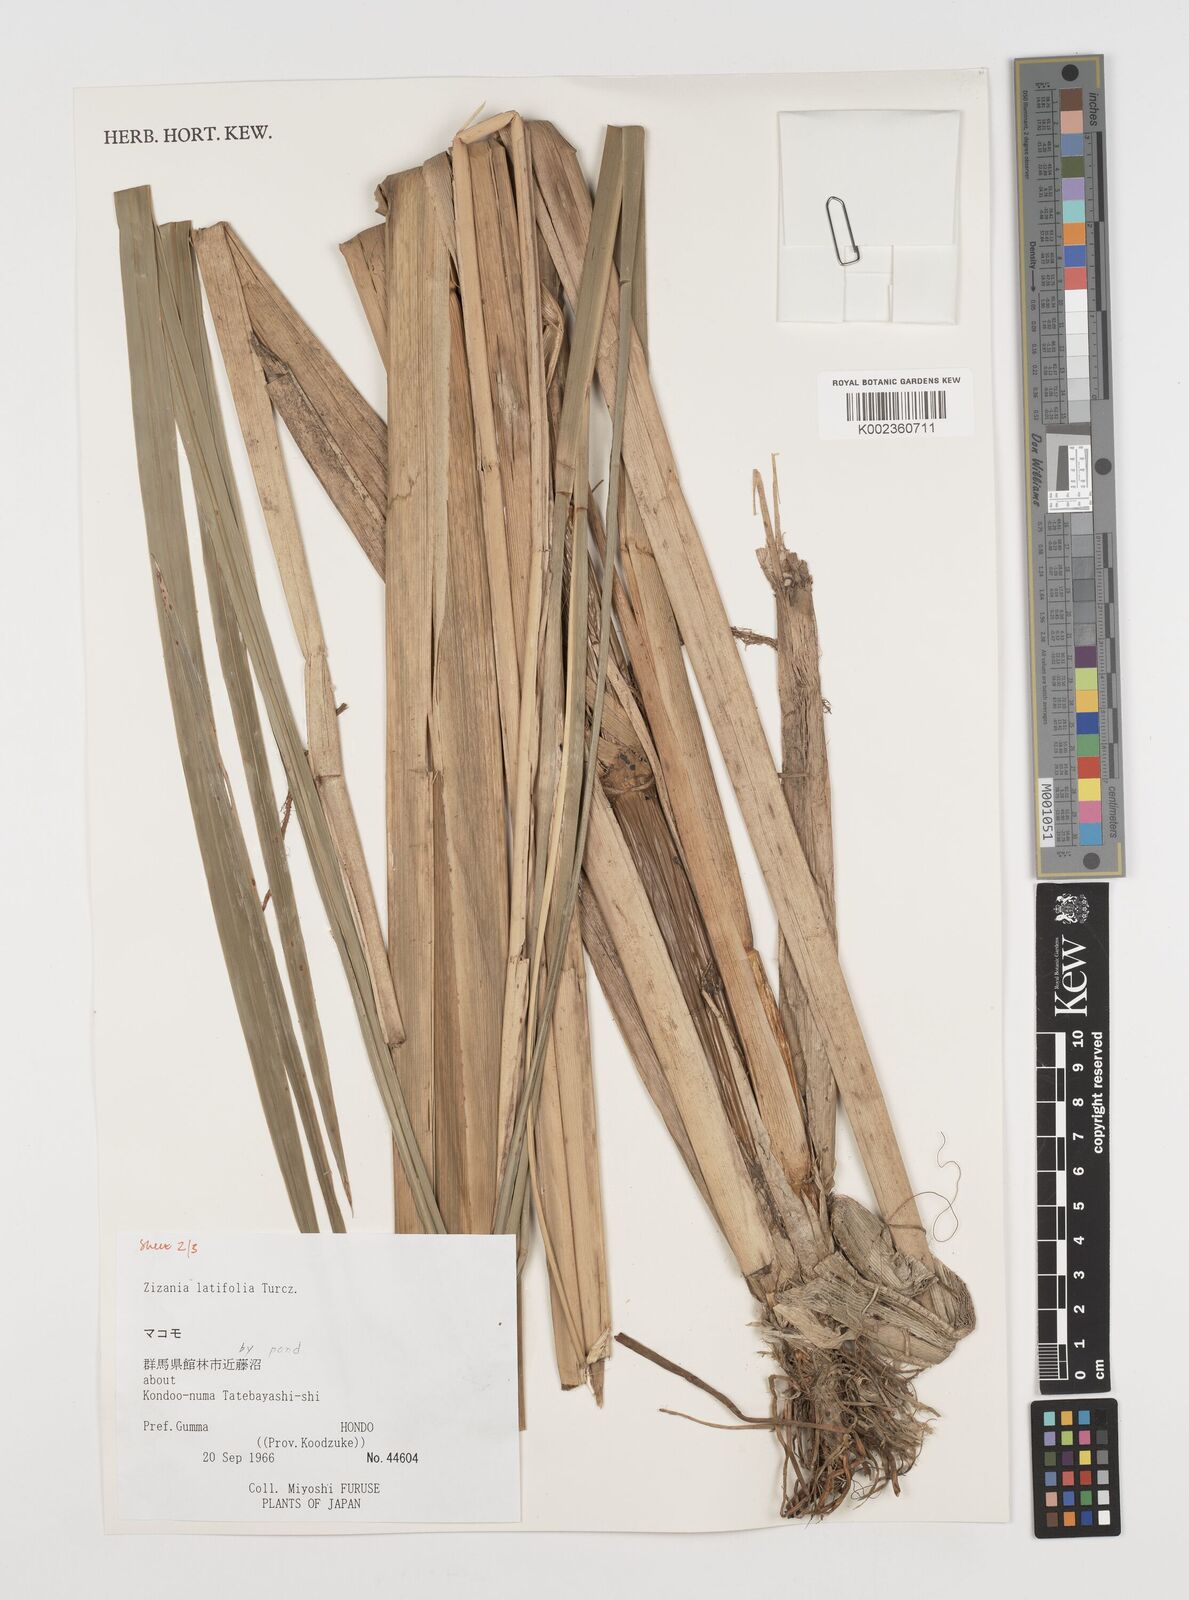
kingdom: Plantae
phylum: Tracheophyta
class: Liliopsida
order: Poales
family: Poaceae
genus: Zizania
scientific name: Zizania latifolia
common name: Manchurian wildrice
